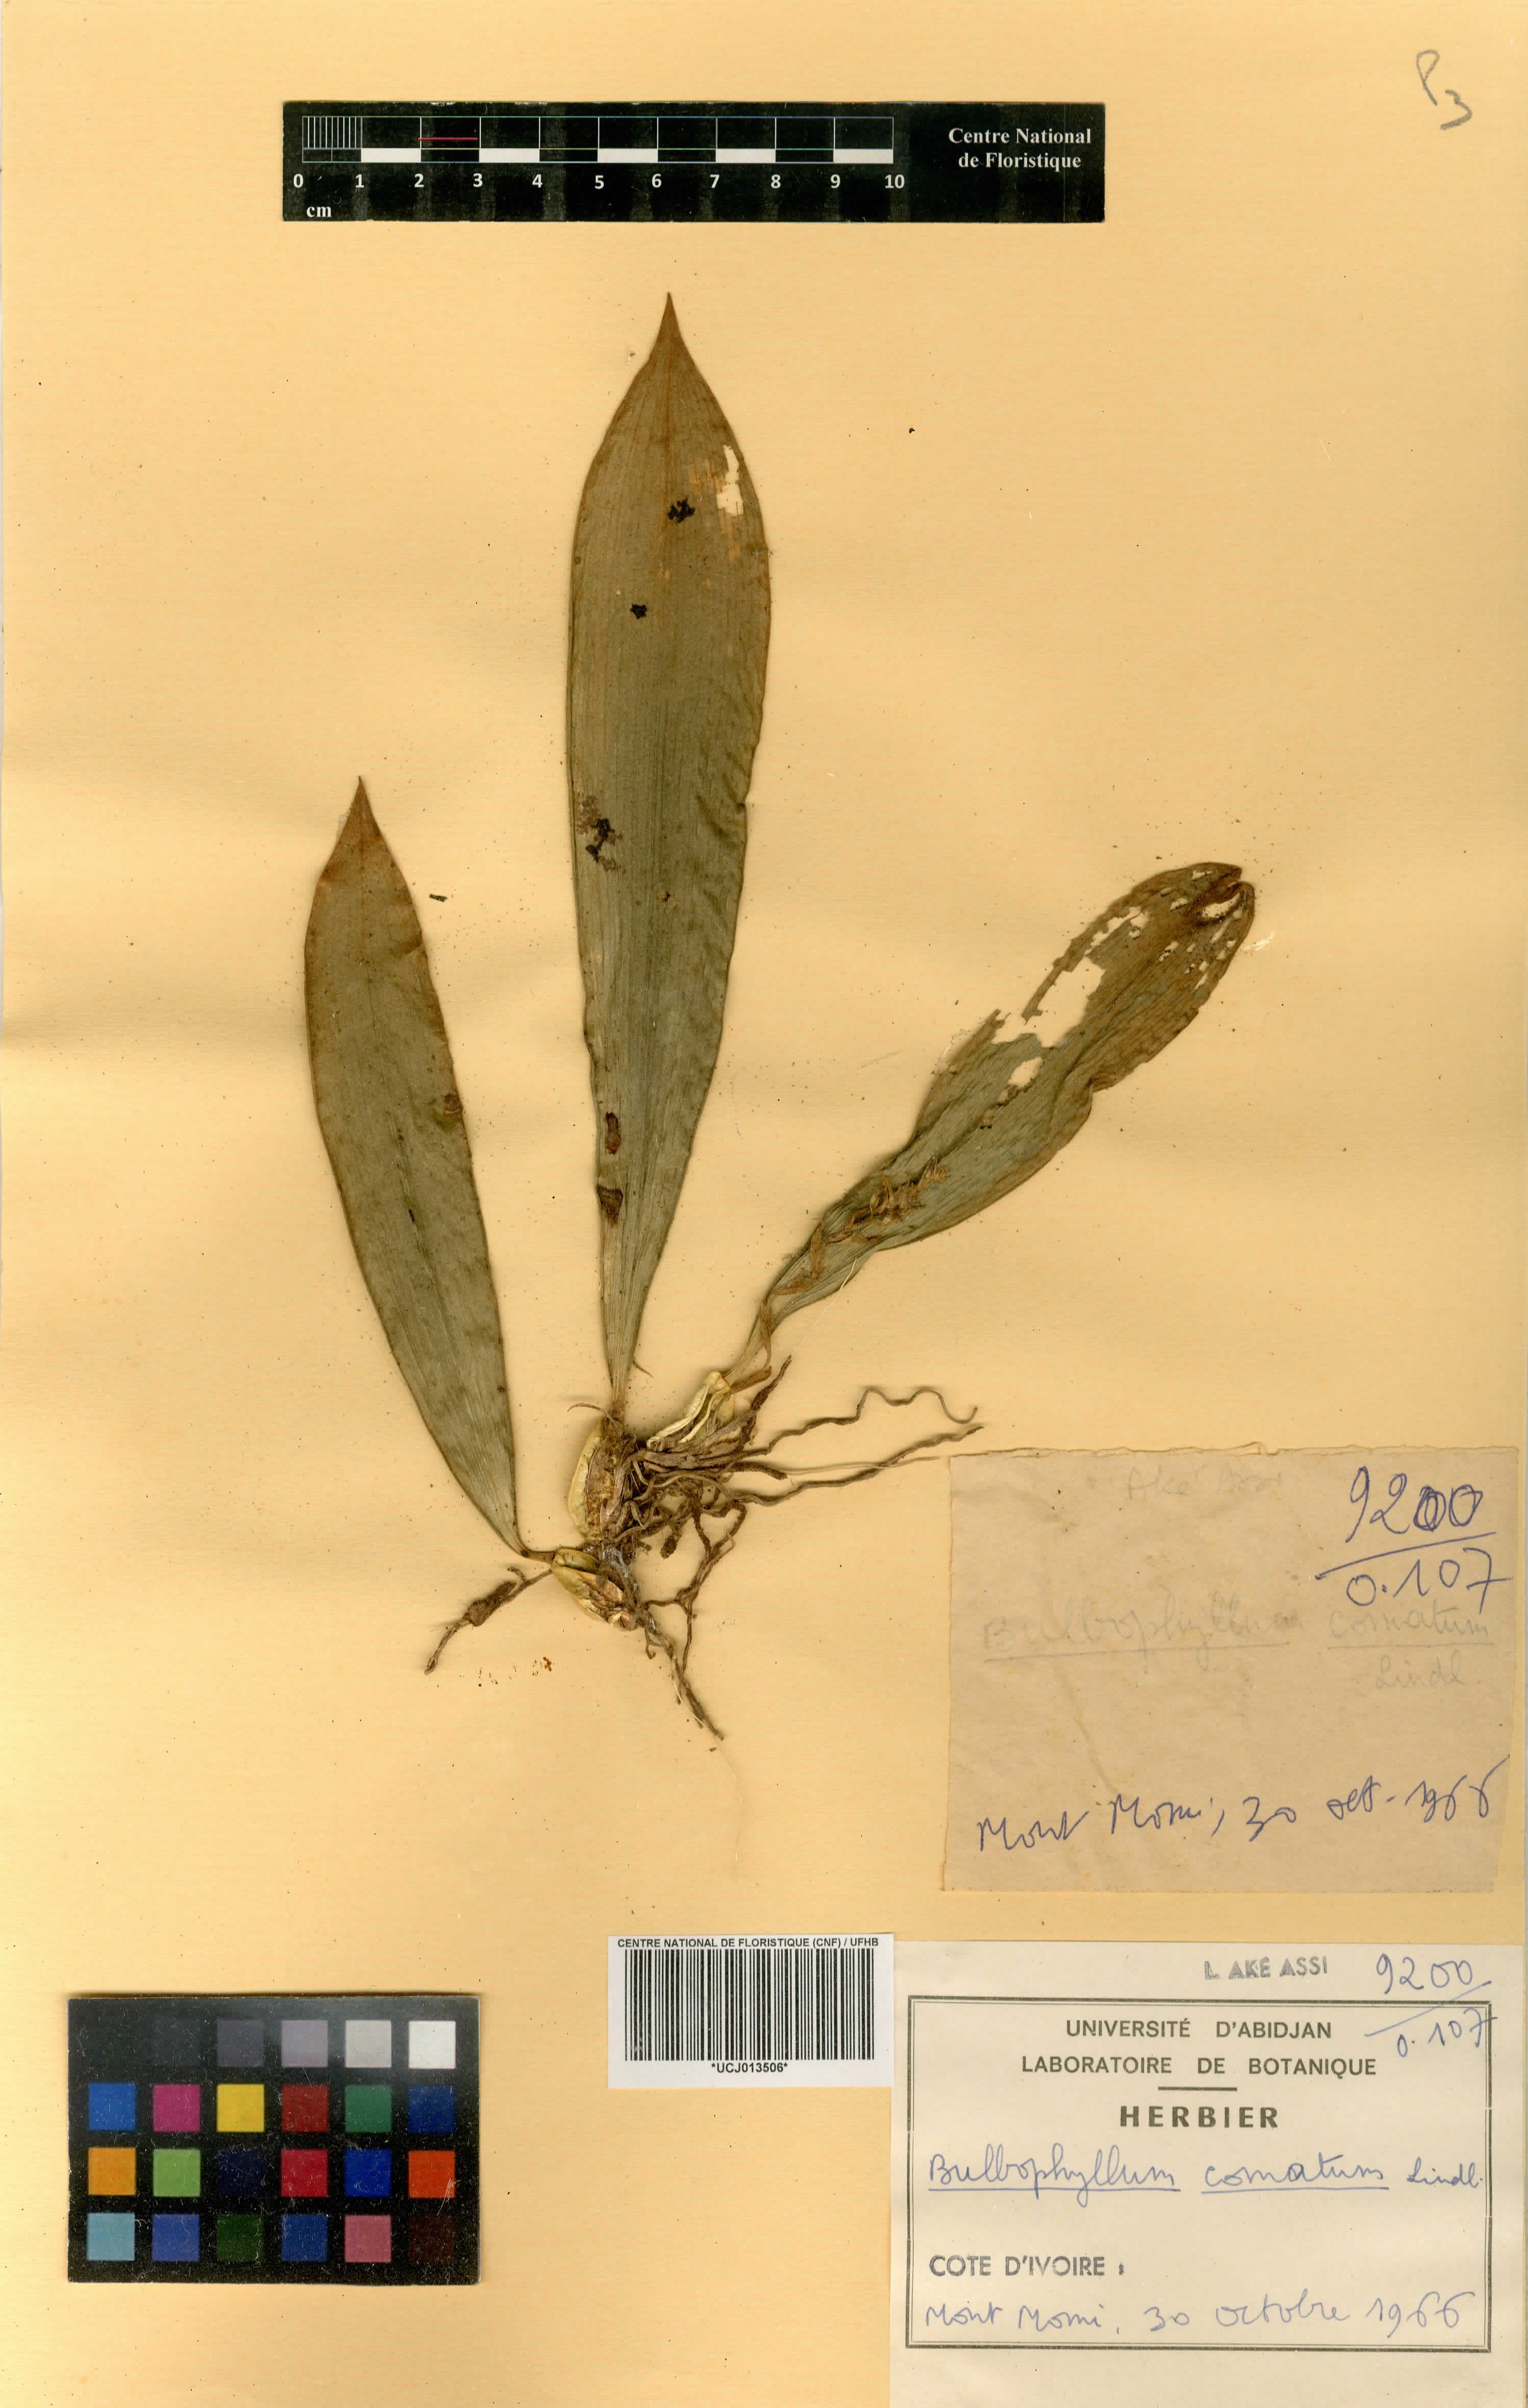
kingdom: Plantae
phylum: Tracheophyta
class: Liliopsida
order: Asparagales
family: Orchidaceae
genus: Bulbophyllum
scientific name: Bulbophyllum comatum
